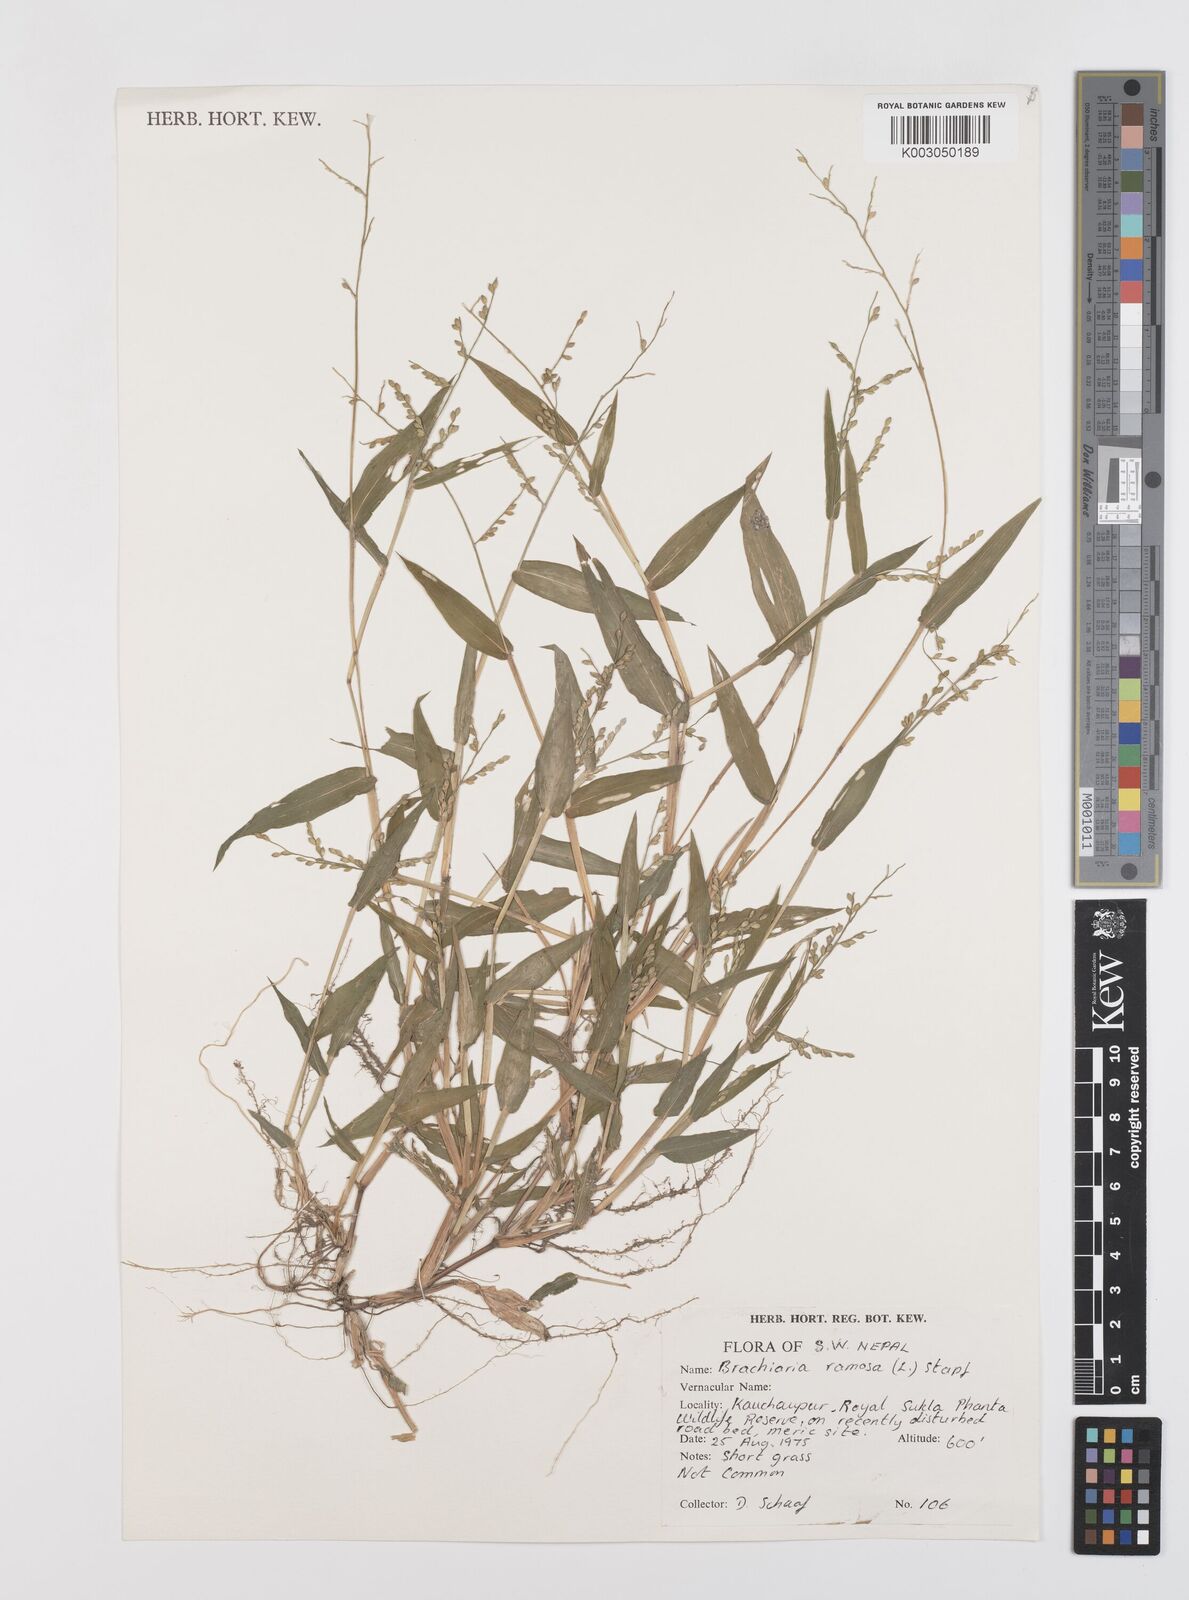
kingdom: Plantae
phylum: Tracheophyta
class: Liliopsida
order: Poales
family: Poaceae
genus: Urochloa
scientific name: Urochloa ramosa
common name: Browntop millet
